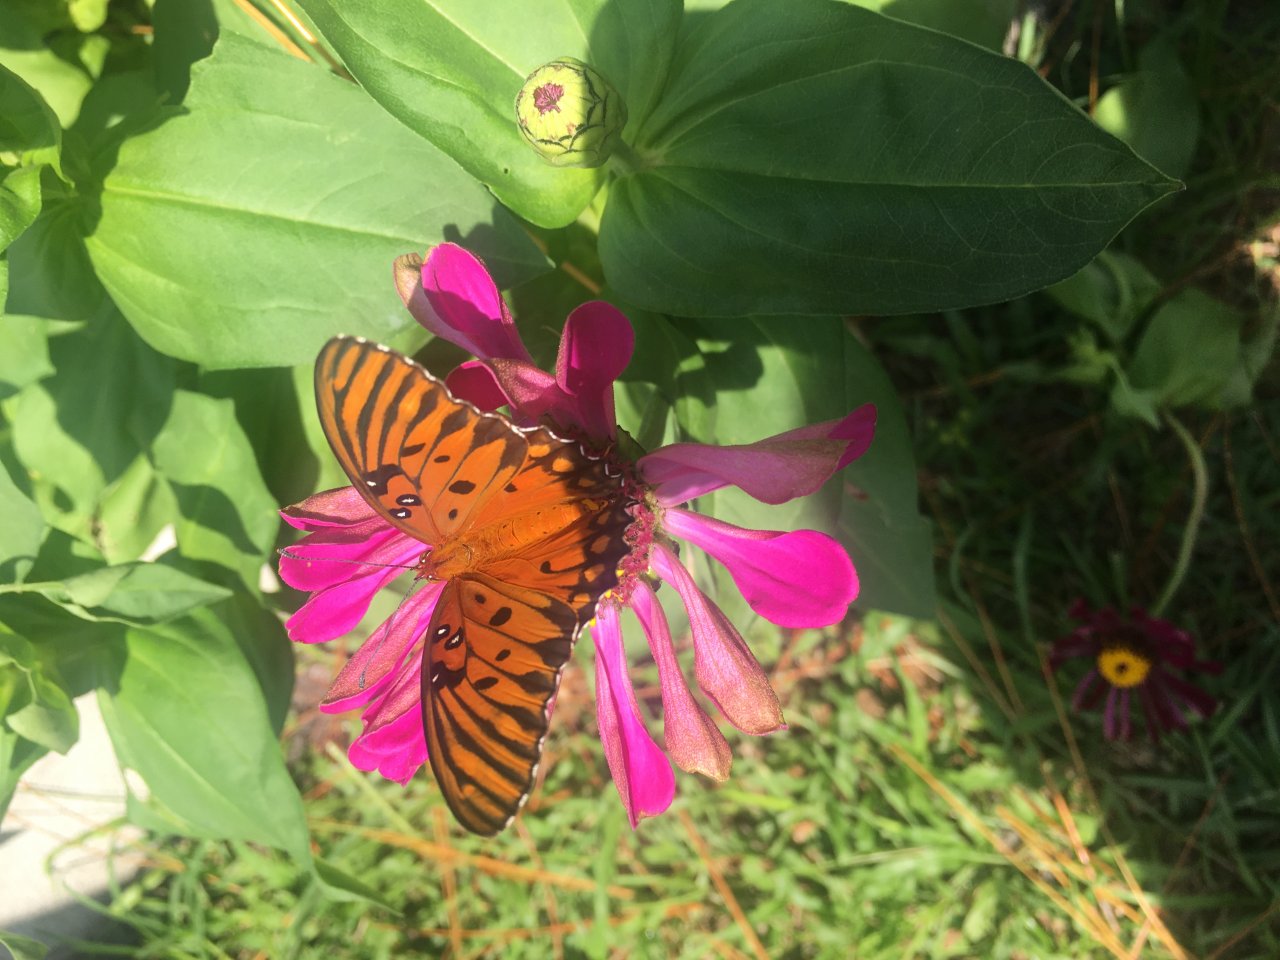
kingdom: Animalia
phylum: Arthropoda
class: Insecta
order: Lepidoptera
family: Nymphalidae
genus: Dione
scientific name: Dione vanillae
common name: Gulf Fritillary
